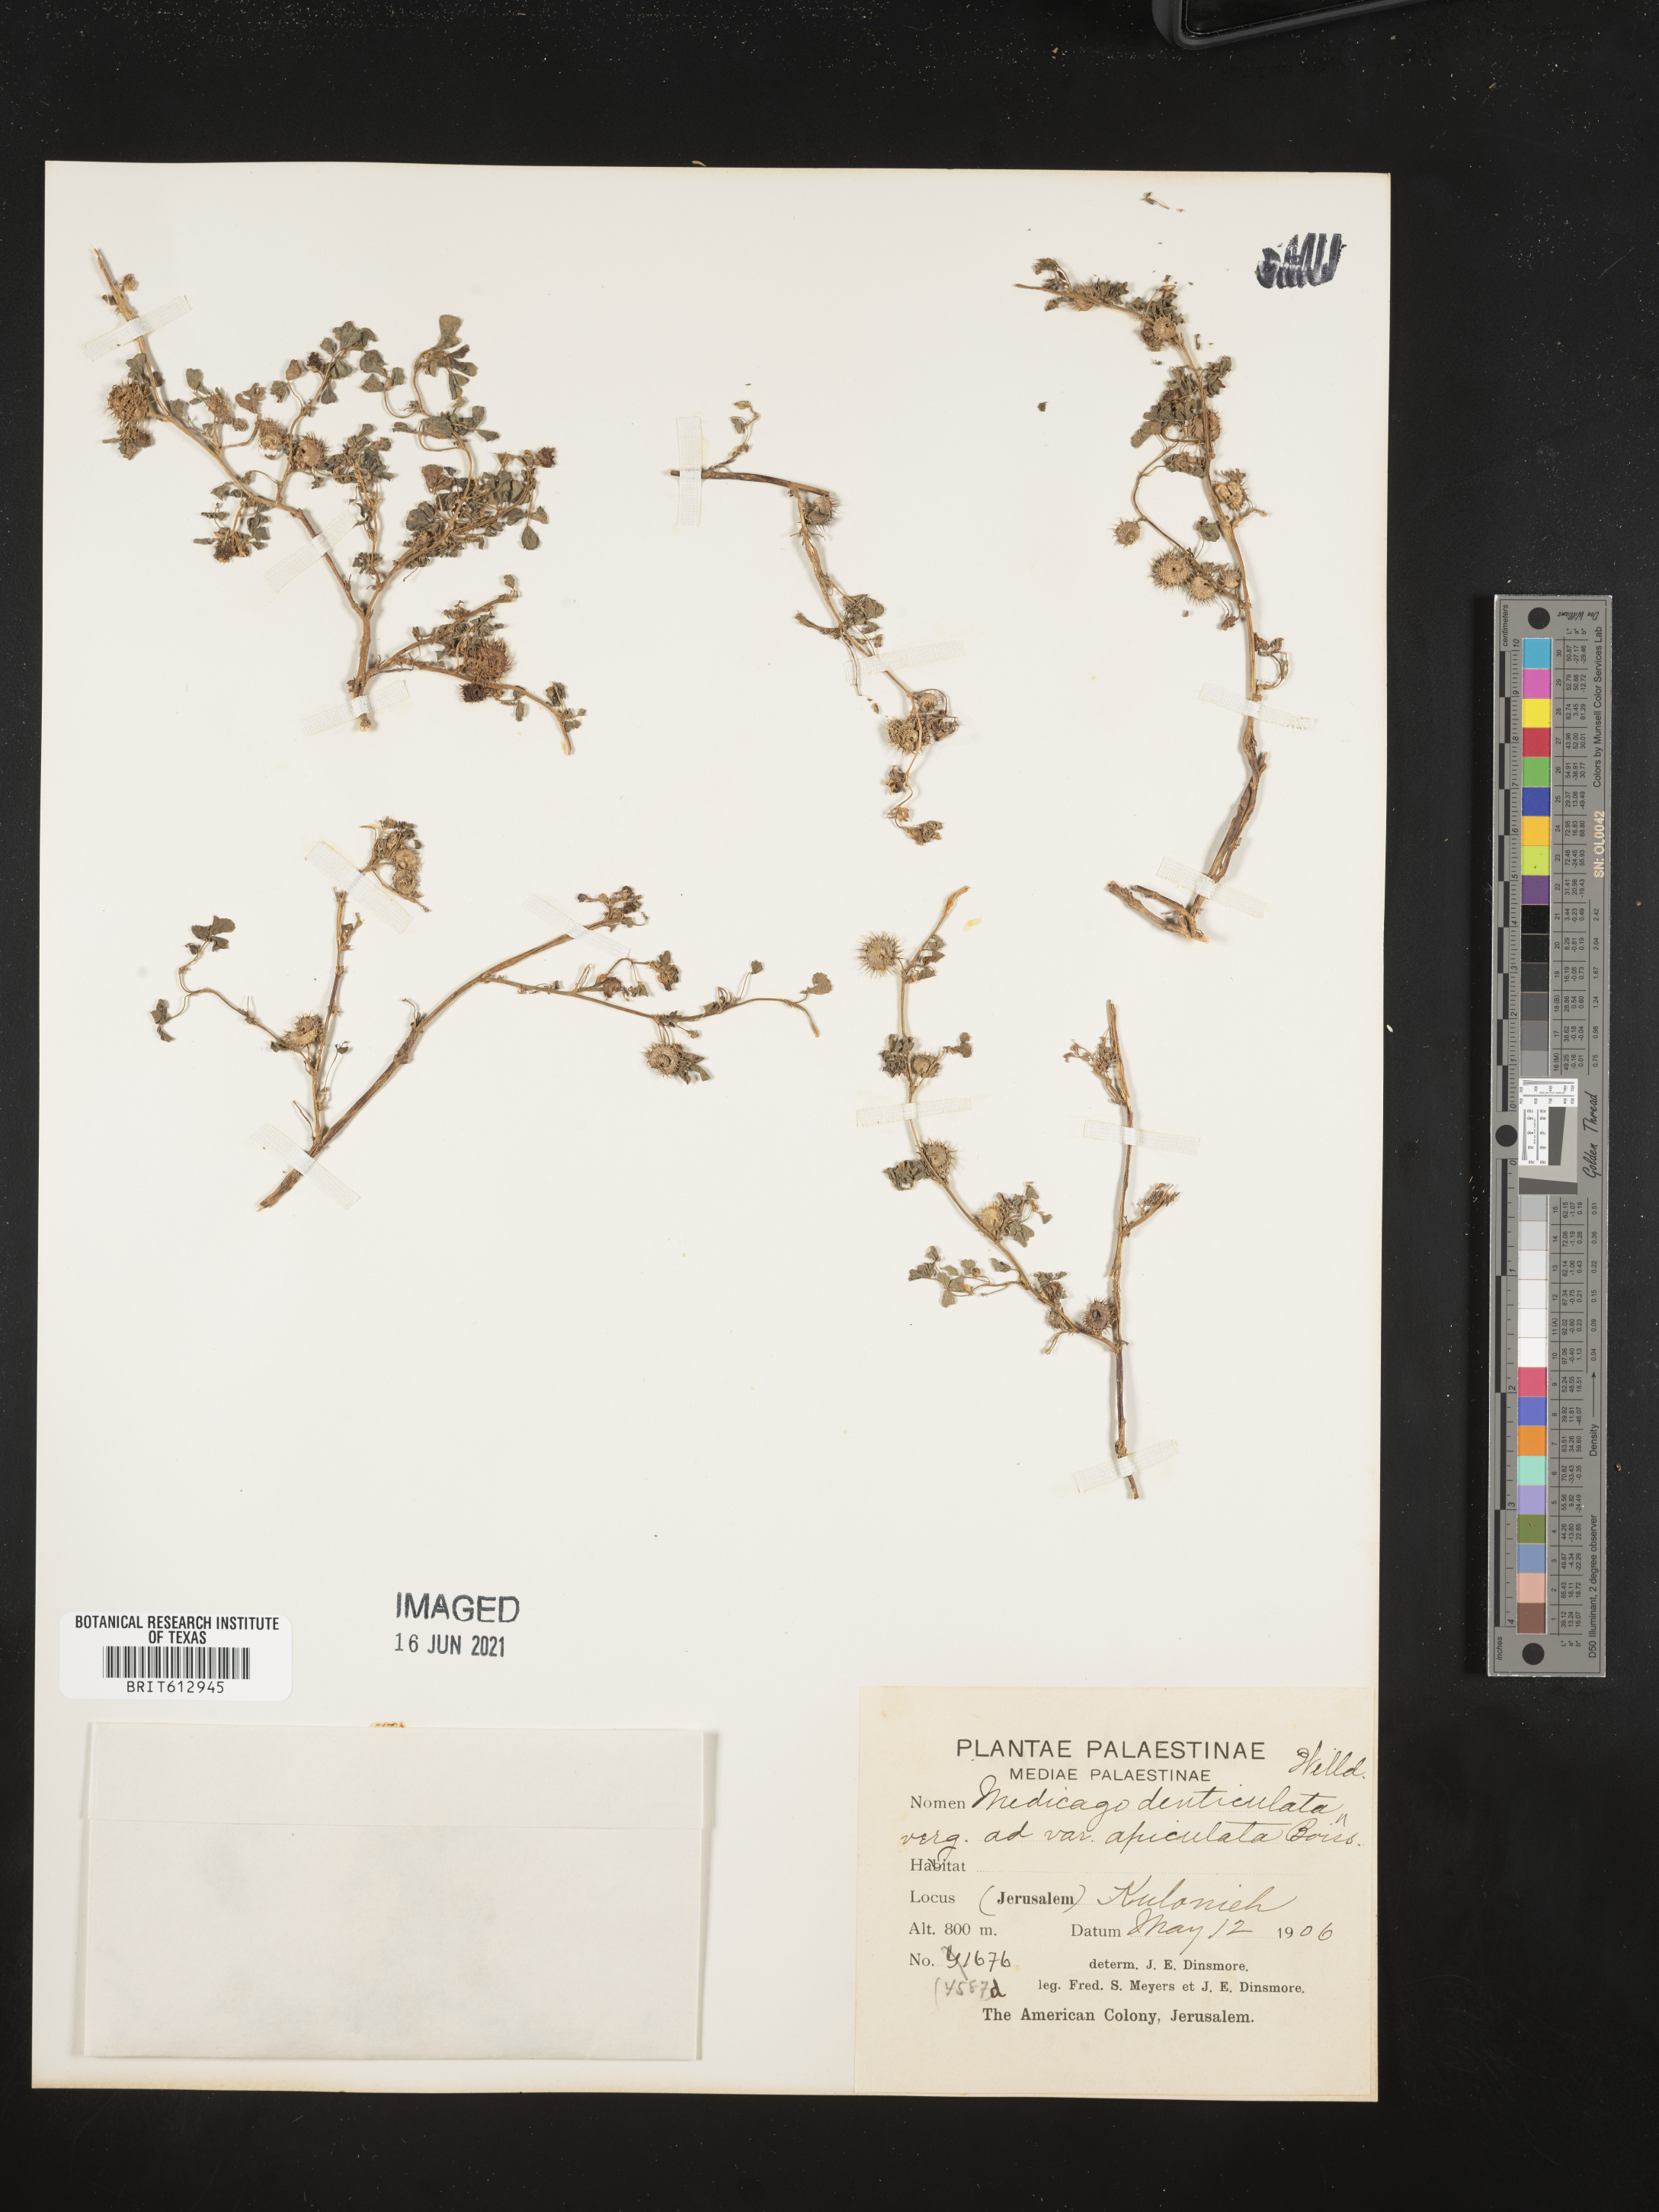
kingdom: Plantae
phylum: Tracheophyta
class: Magnoliopsida
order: Fabales
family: Fabaceae
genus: Medicago
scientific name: Medicago polymorpha
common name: Burclover
